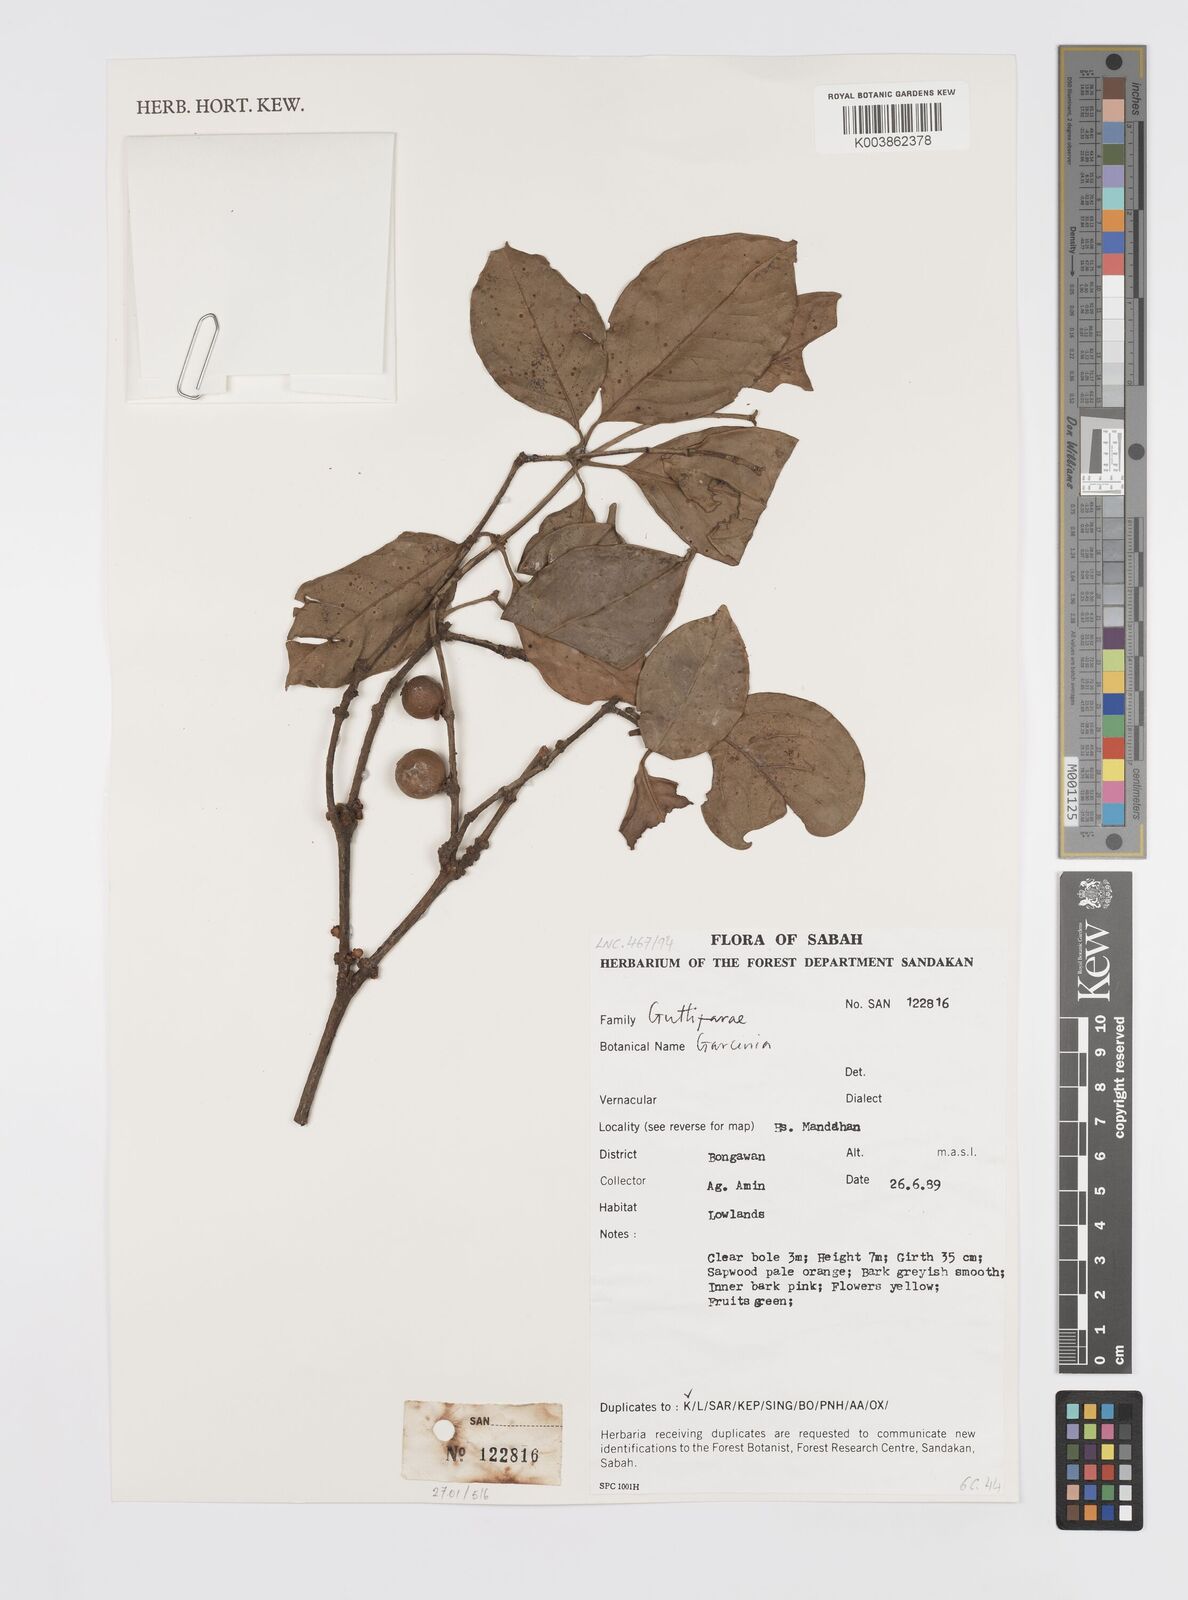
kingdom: Plantae
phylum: Tracheophyta
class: Magnoliopsida
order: Malpighiales
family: Clusiaceae
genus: Garcinia
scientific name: Garcinia
